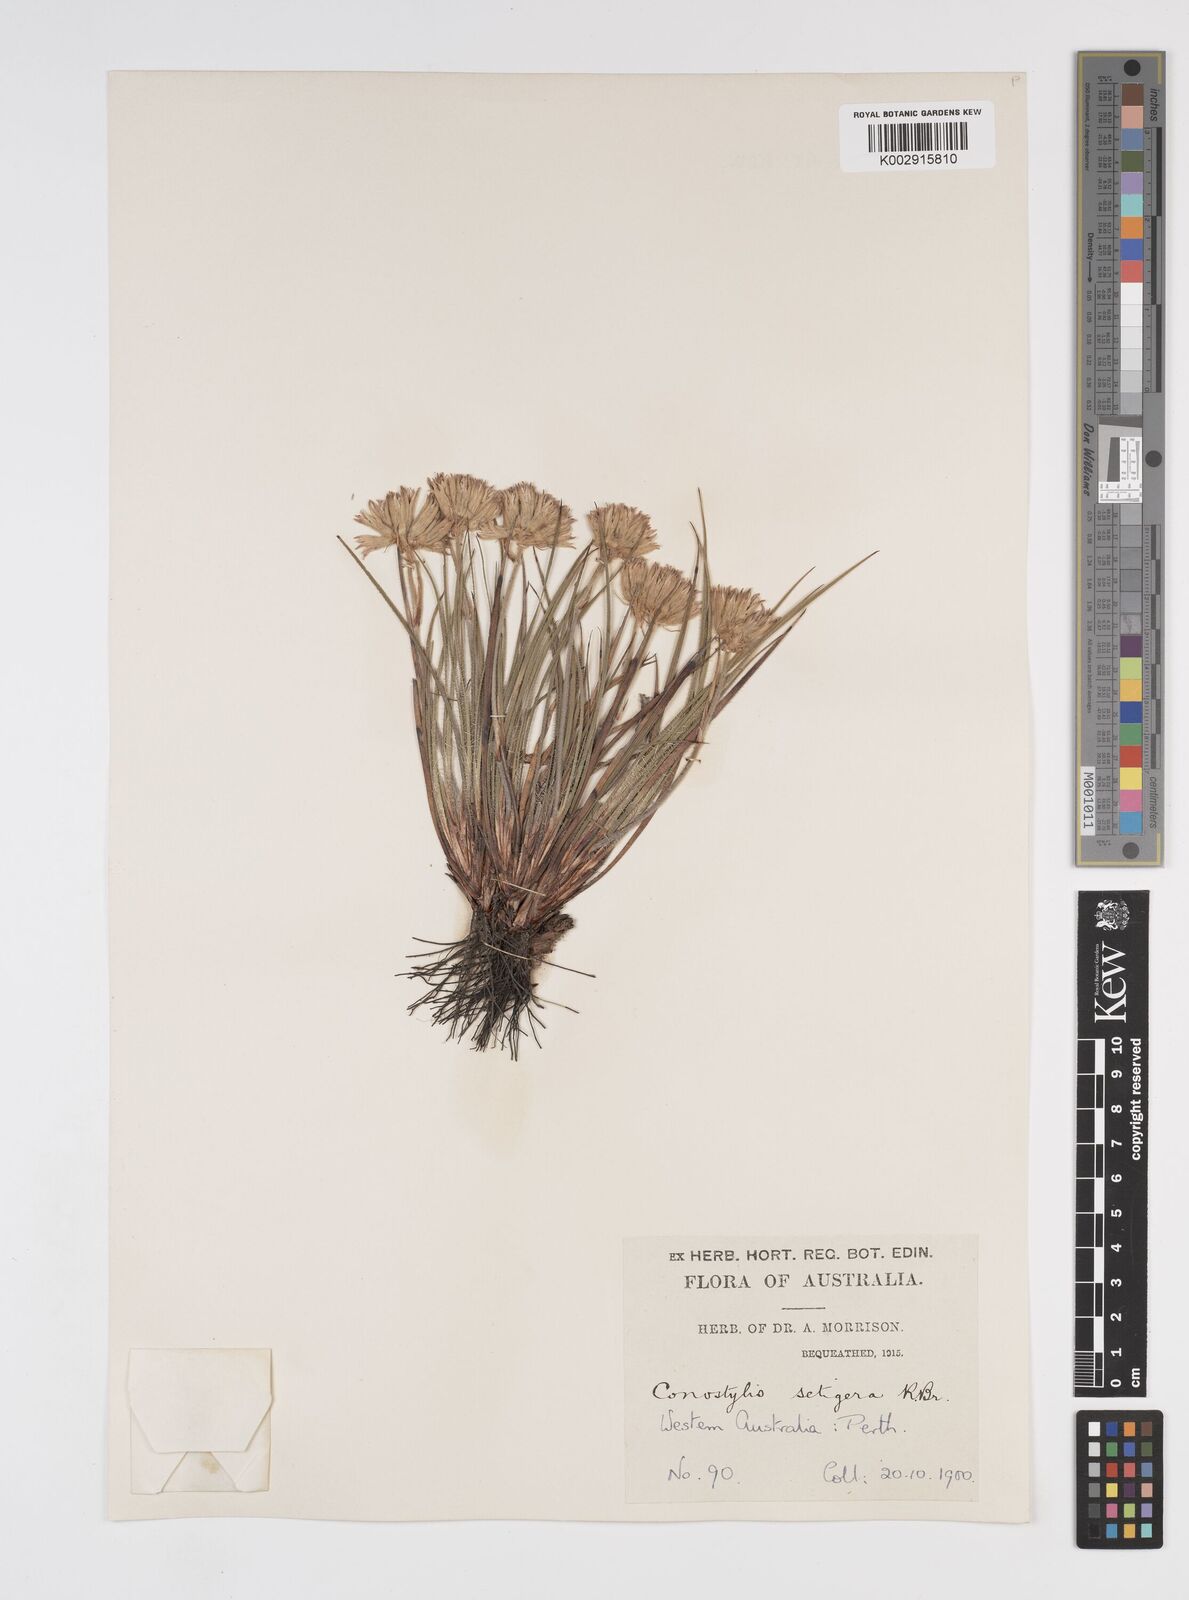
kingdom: Plantae
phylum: Tracheophyta
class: Liliopsida
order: Commelinales
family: Haemodoraceae
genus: Conostylis
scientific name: Conostylis setigera
